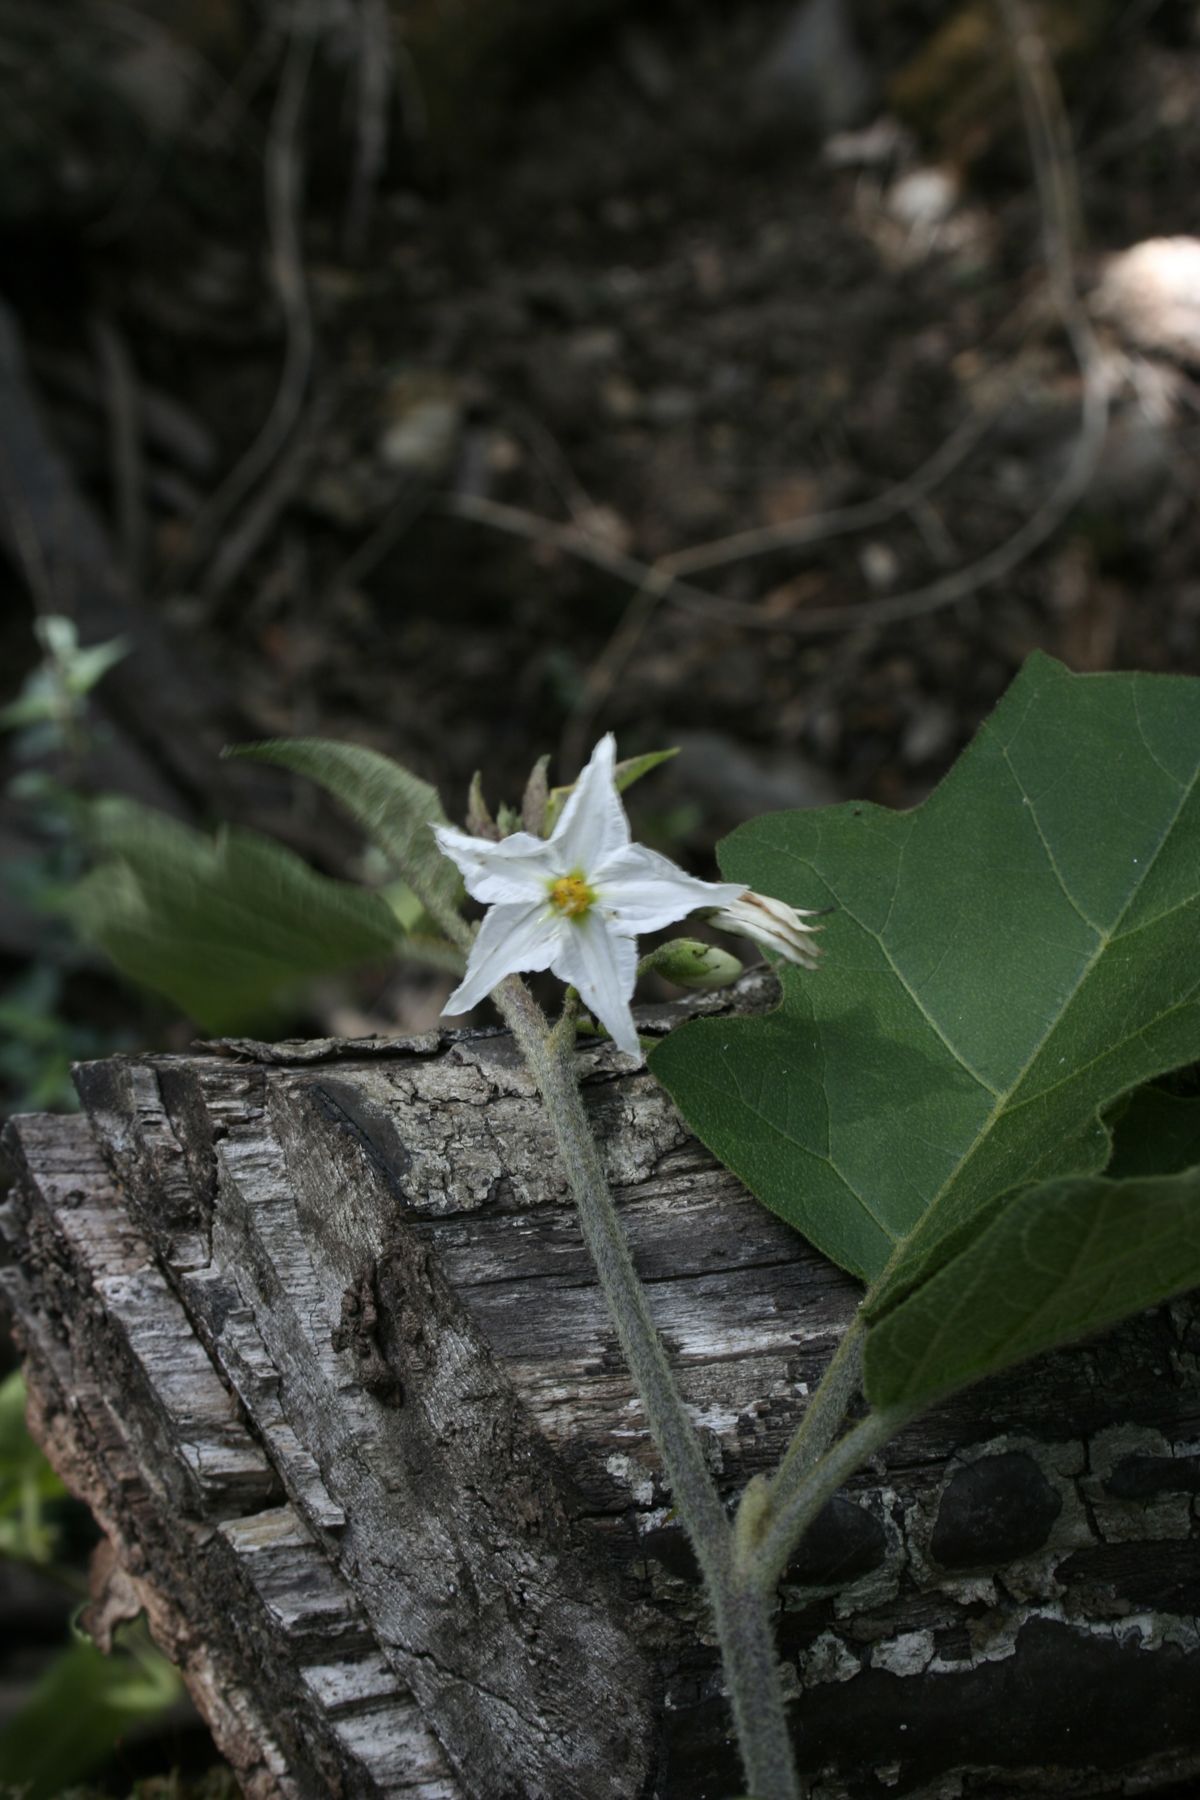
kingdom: Plantae
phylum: Tracheophyta
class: Magnoliopsida
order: Solanales
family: Solanaceae
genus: Solanum
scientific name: Solanum ferrugineum
